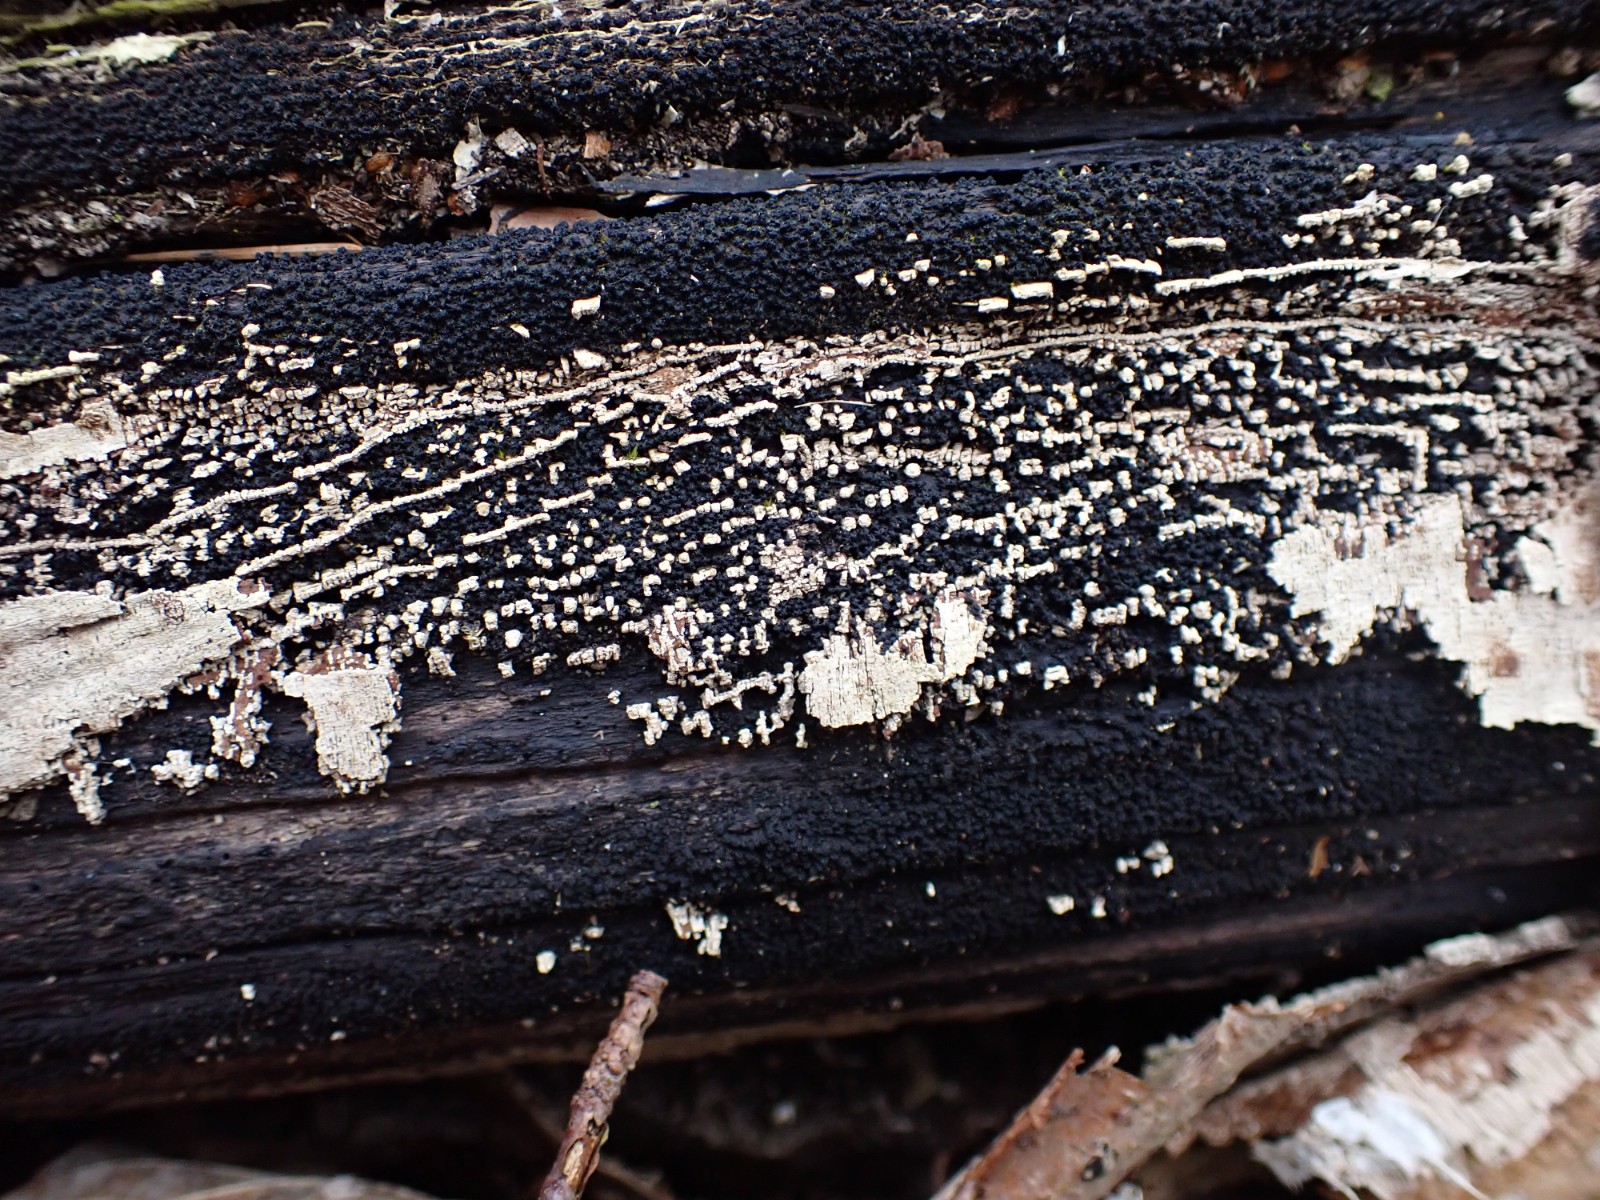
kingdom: Fungi
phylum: Ascomycota
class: Sordariomycetes
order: Xylariales
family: Diatrypaceae
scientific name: Diatrypaceae
